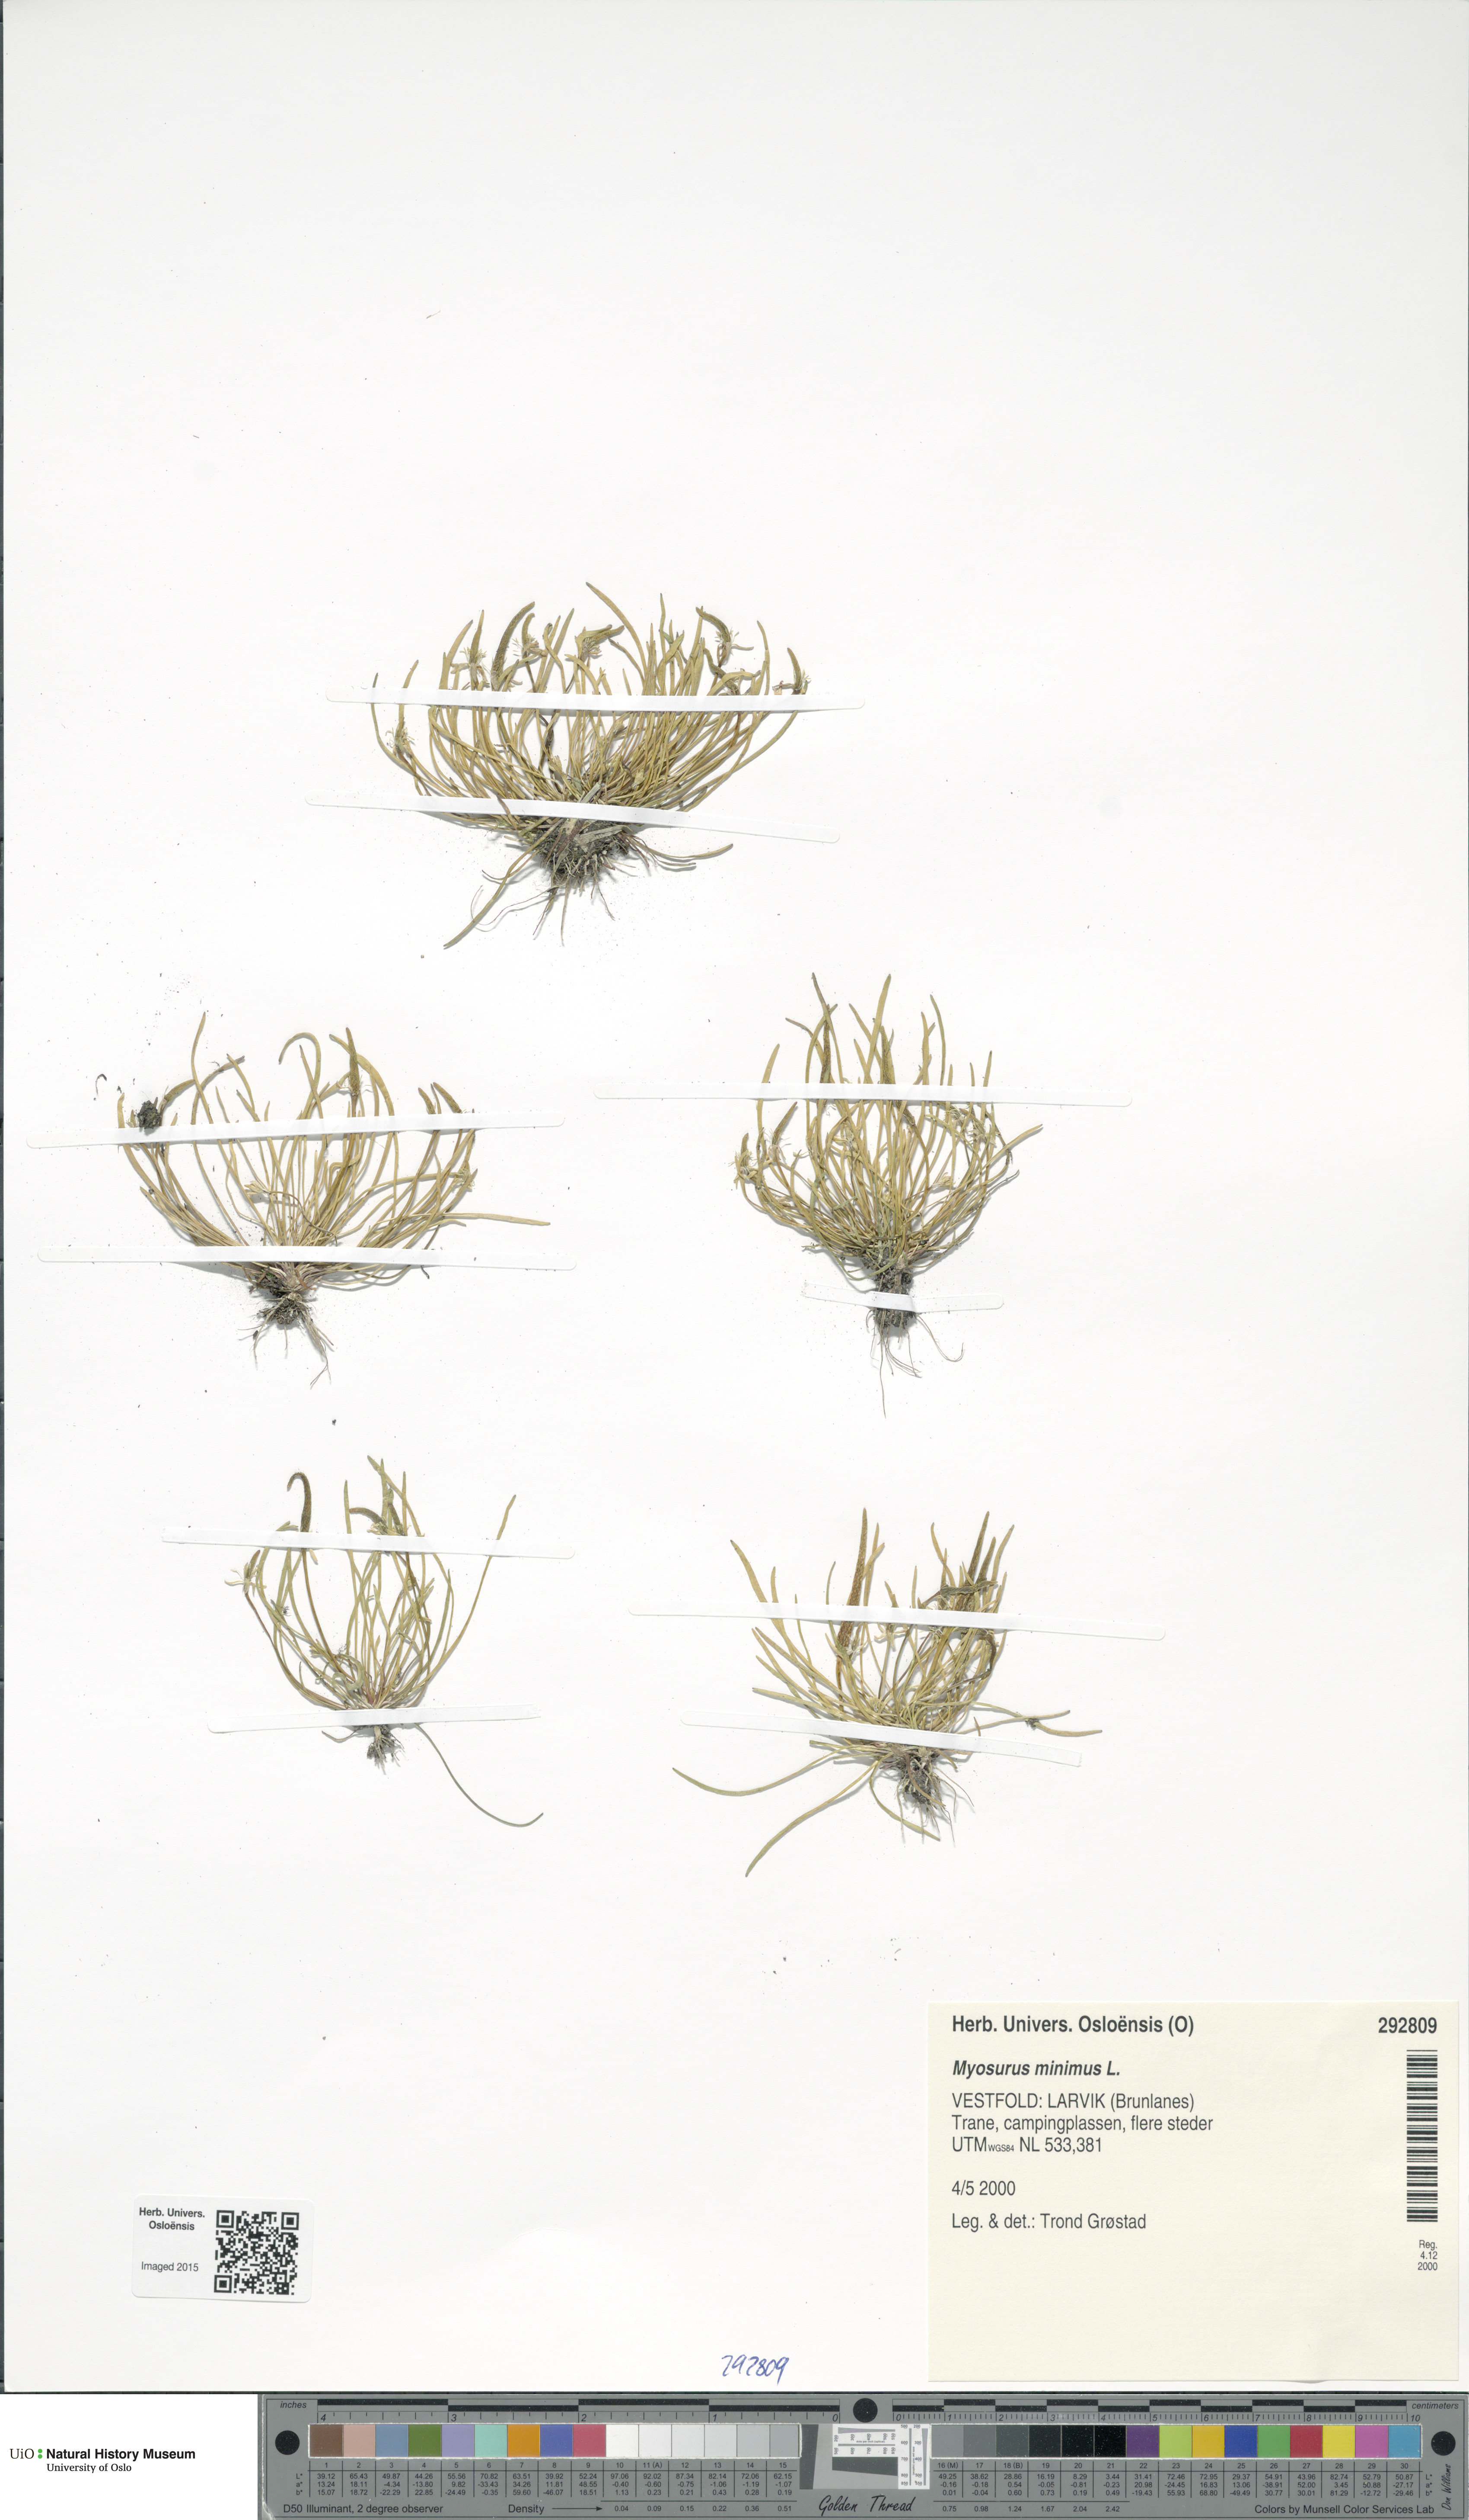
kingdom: Plantae
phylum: Tracheophyta
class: Magnoliopsida
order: Ranunculales
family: Ranunculaceae
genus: Myosurus
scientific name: Myosurus minimus
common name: Mousetail
